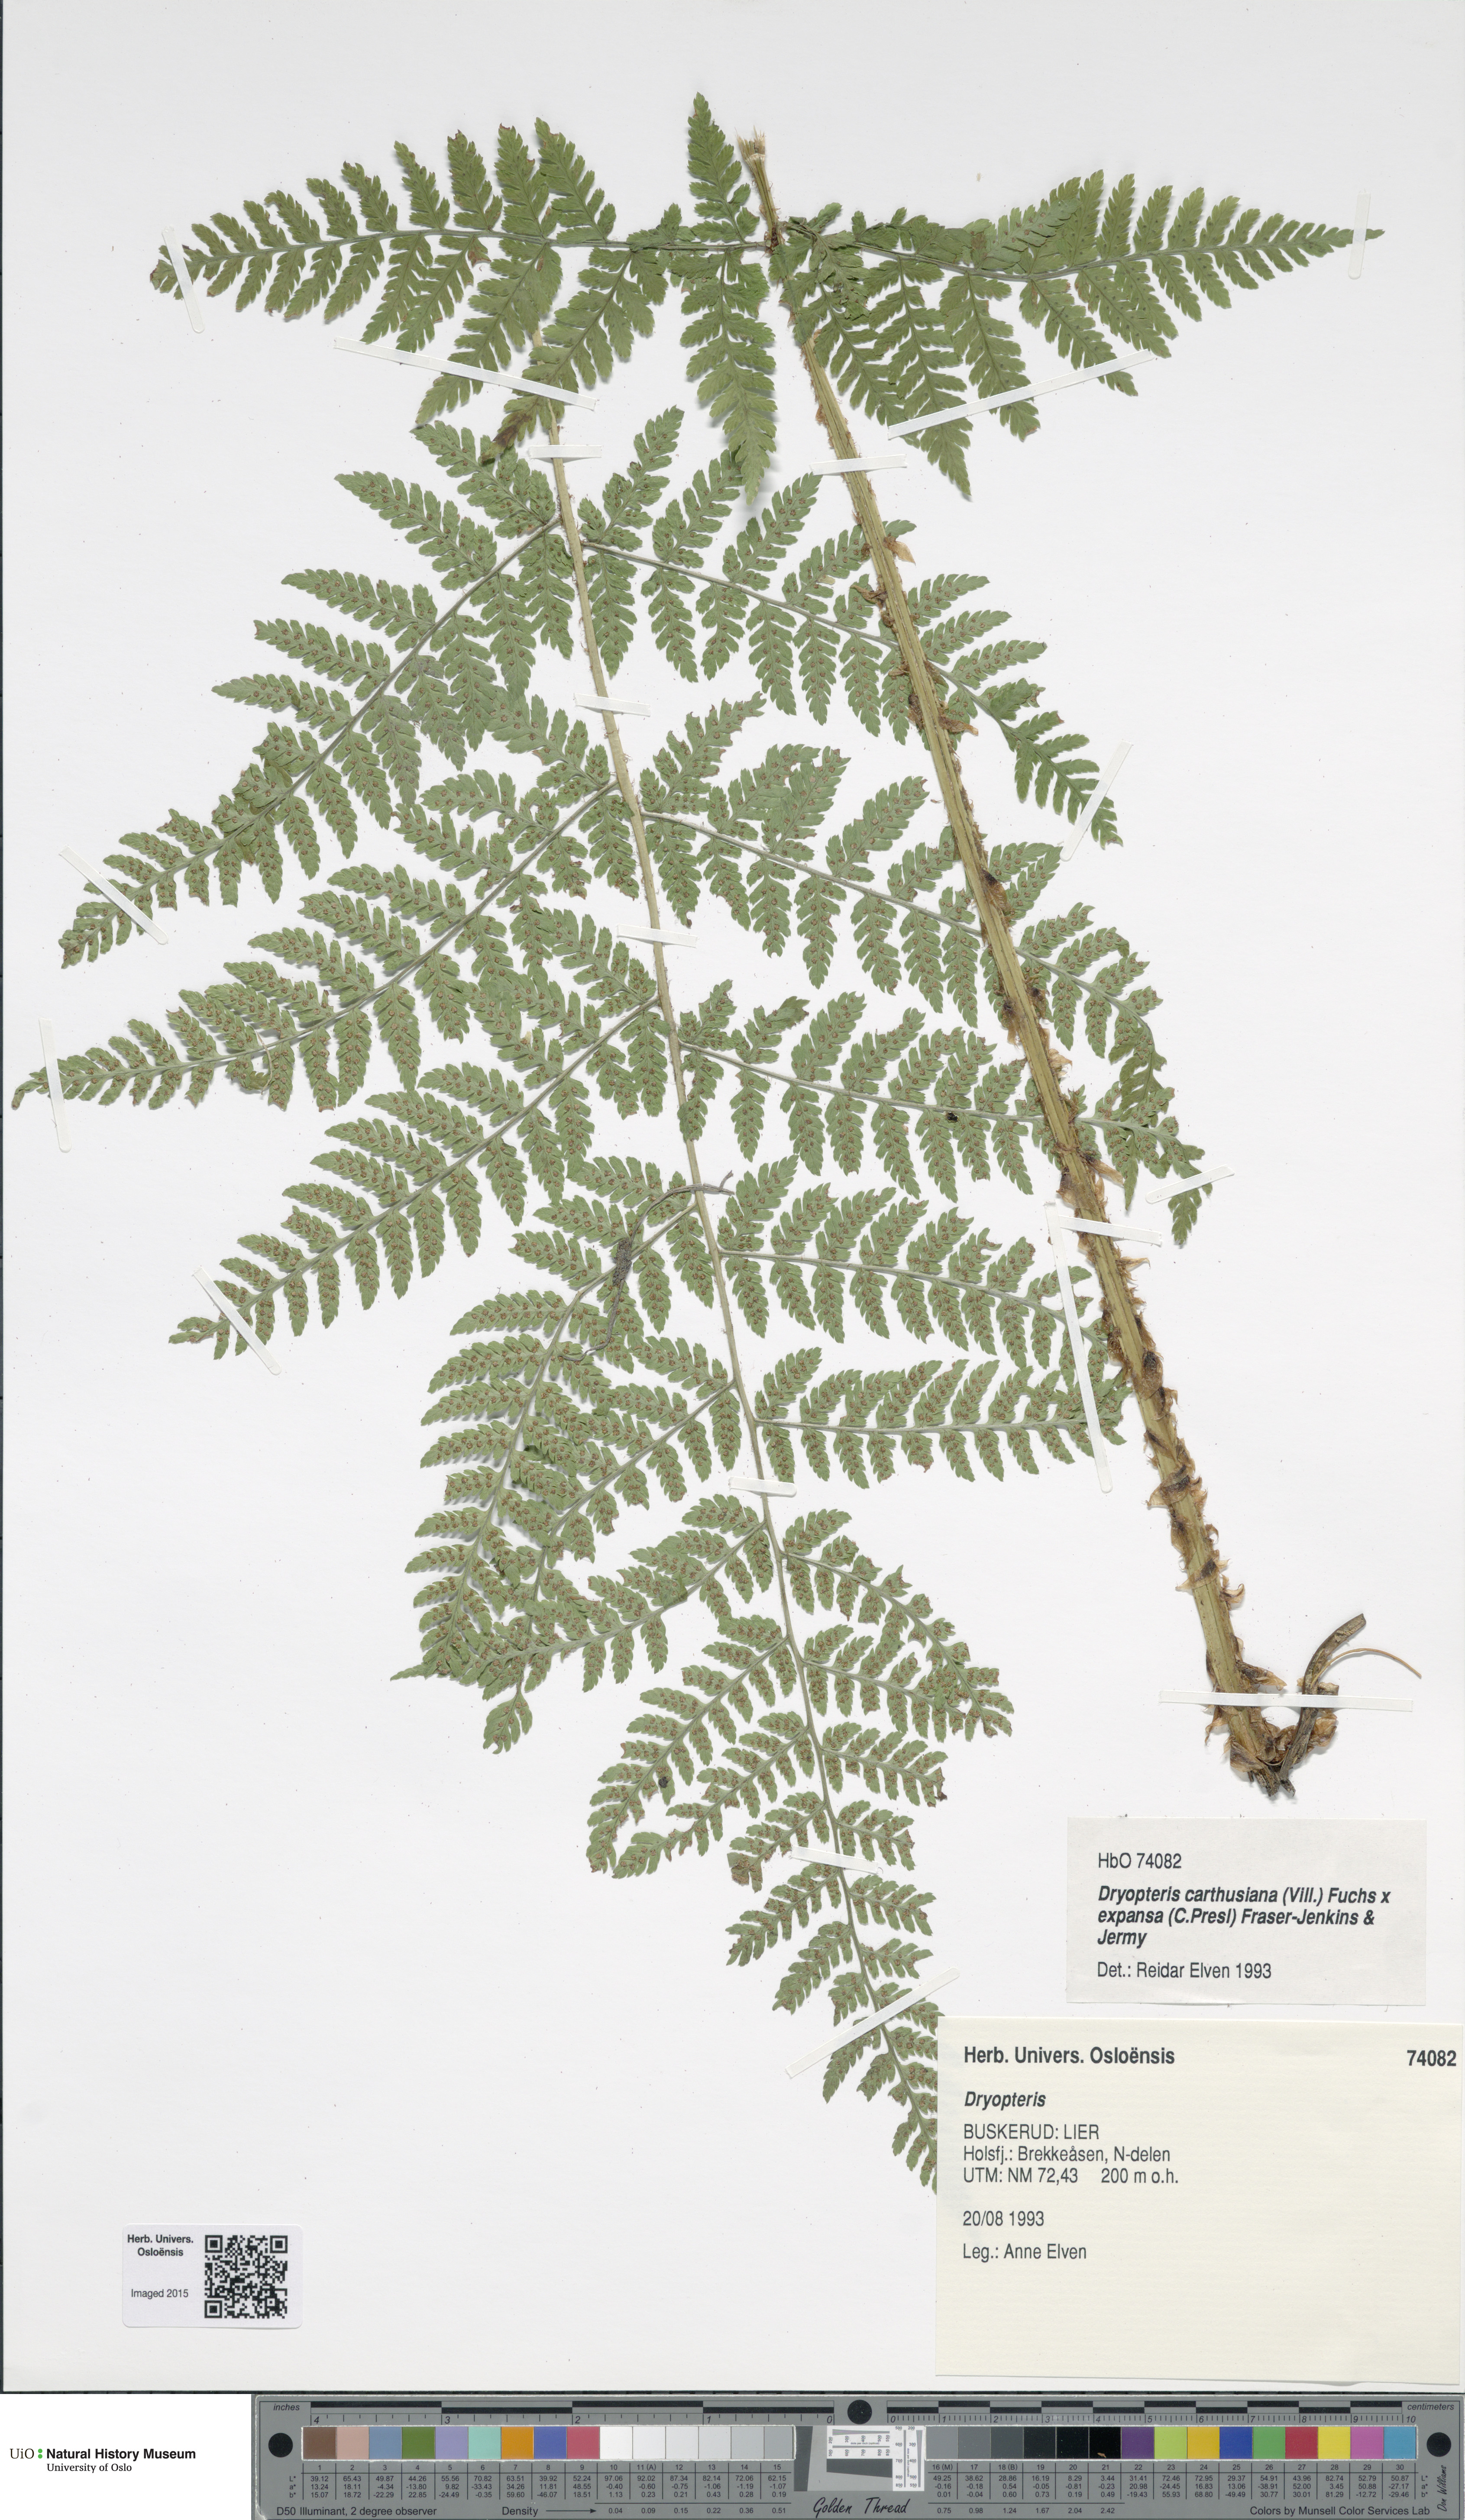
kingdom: Plantae
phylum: Tracheophyta
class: Polypodiopsida
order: Polypodiales
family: Dryopteridaceae
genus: Dryopteris
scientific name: Dryopteris
